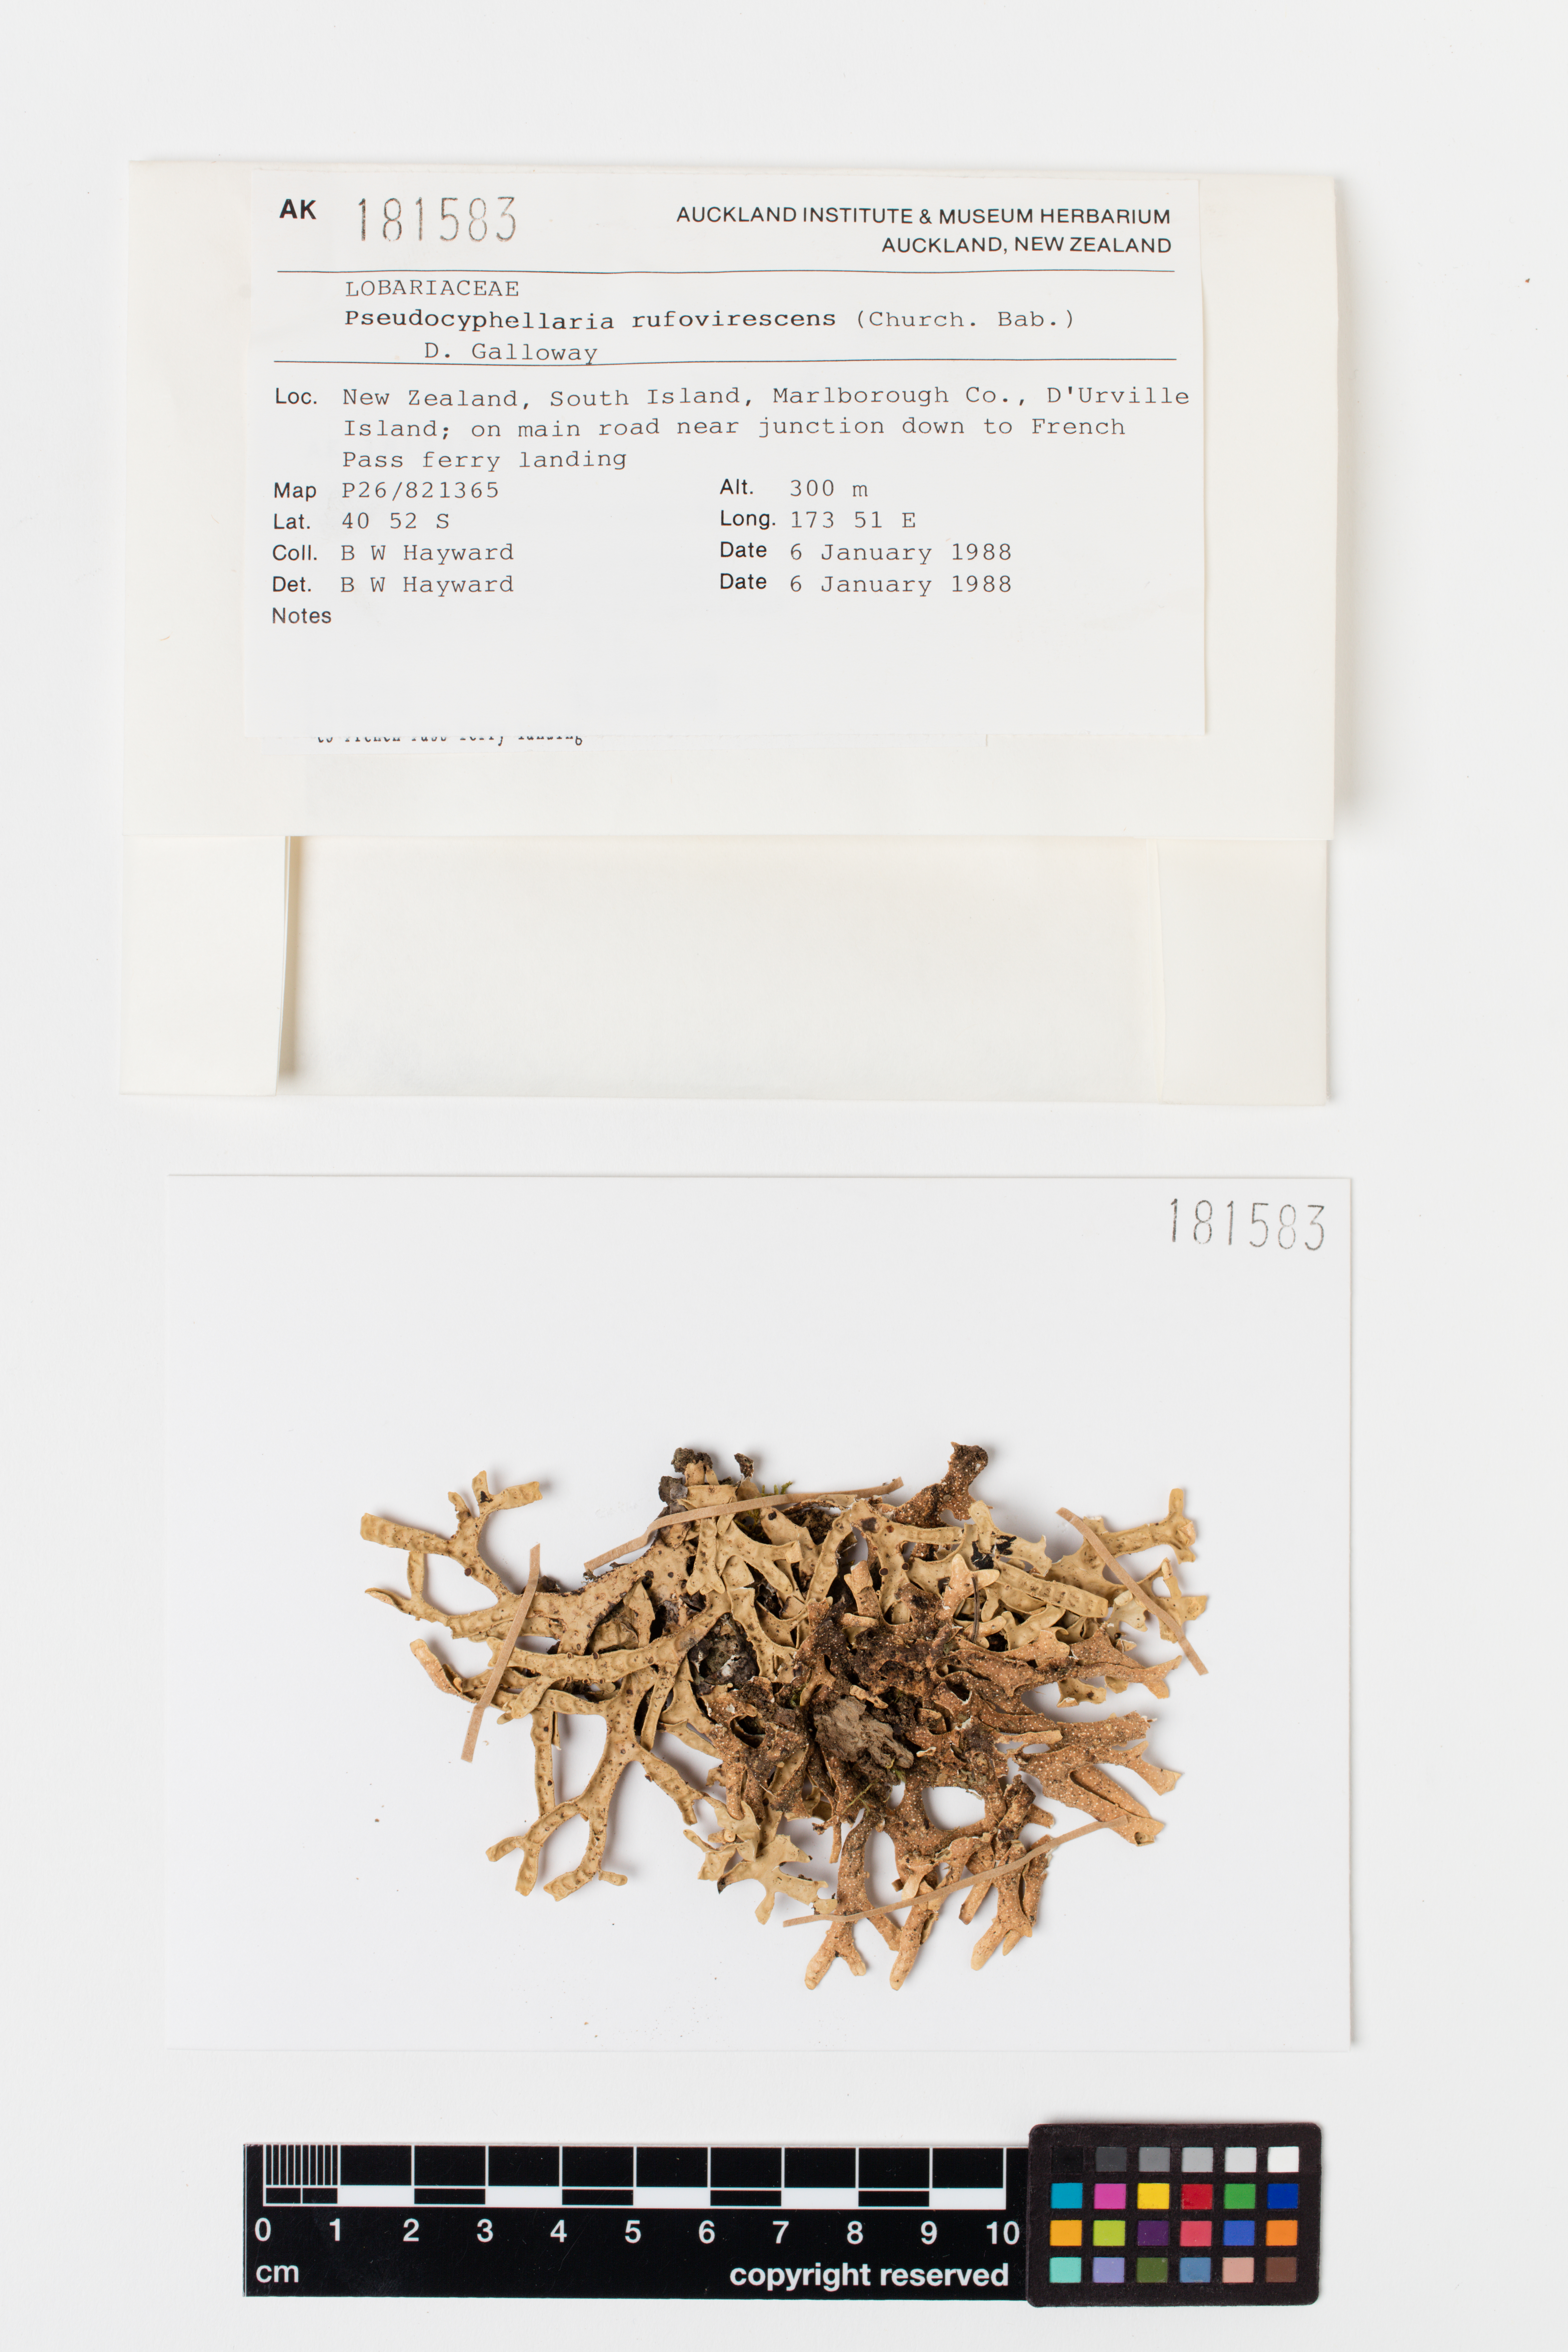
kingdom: Fungi
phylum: Ascomycota
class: Lecanoromycetes
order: Peltigerales
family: Lobariaceae
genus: Pseudocyphellaria
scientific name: Pseudocyphellaria rufovirescens
